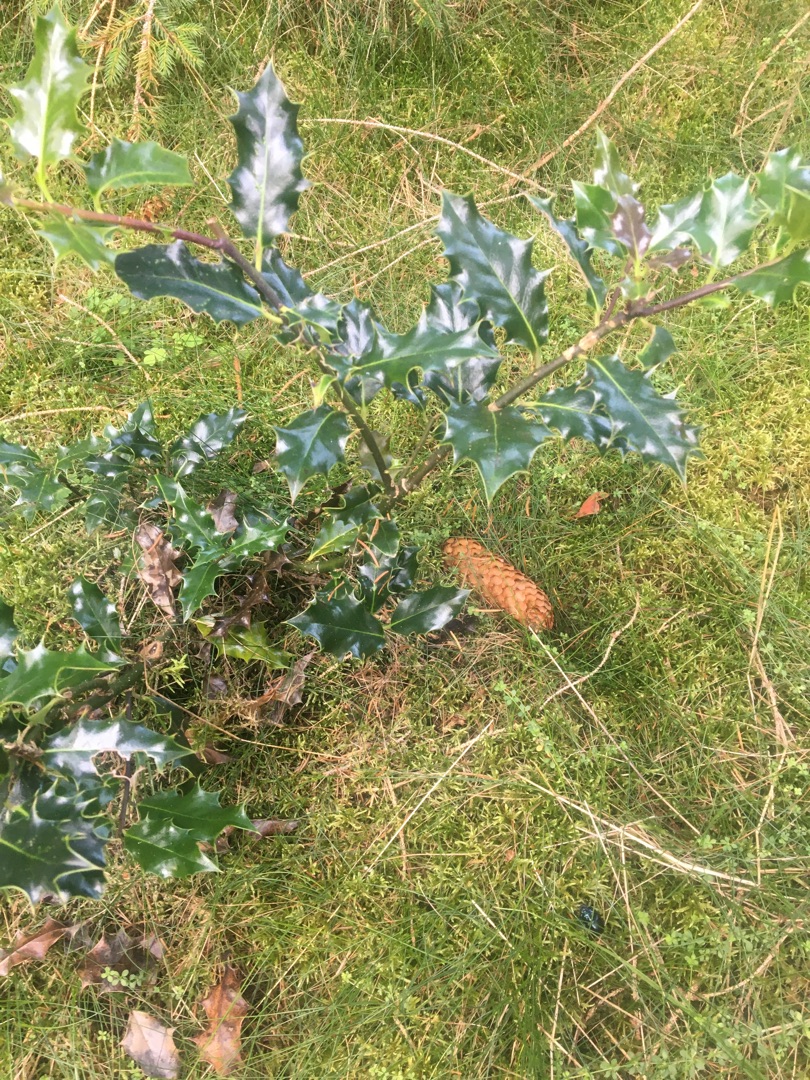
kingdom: Plantae
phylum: Tracheophyta
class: Magnoliopsida
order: Aquifoliales
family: Aquifoliaceae
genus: Ilex
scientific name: Ilex aquifolium
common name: Kristtorn
